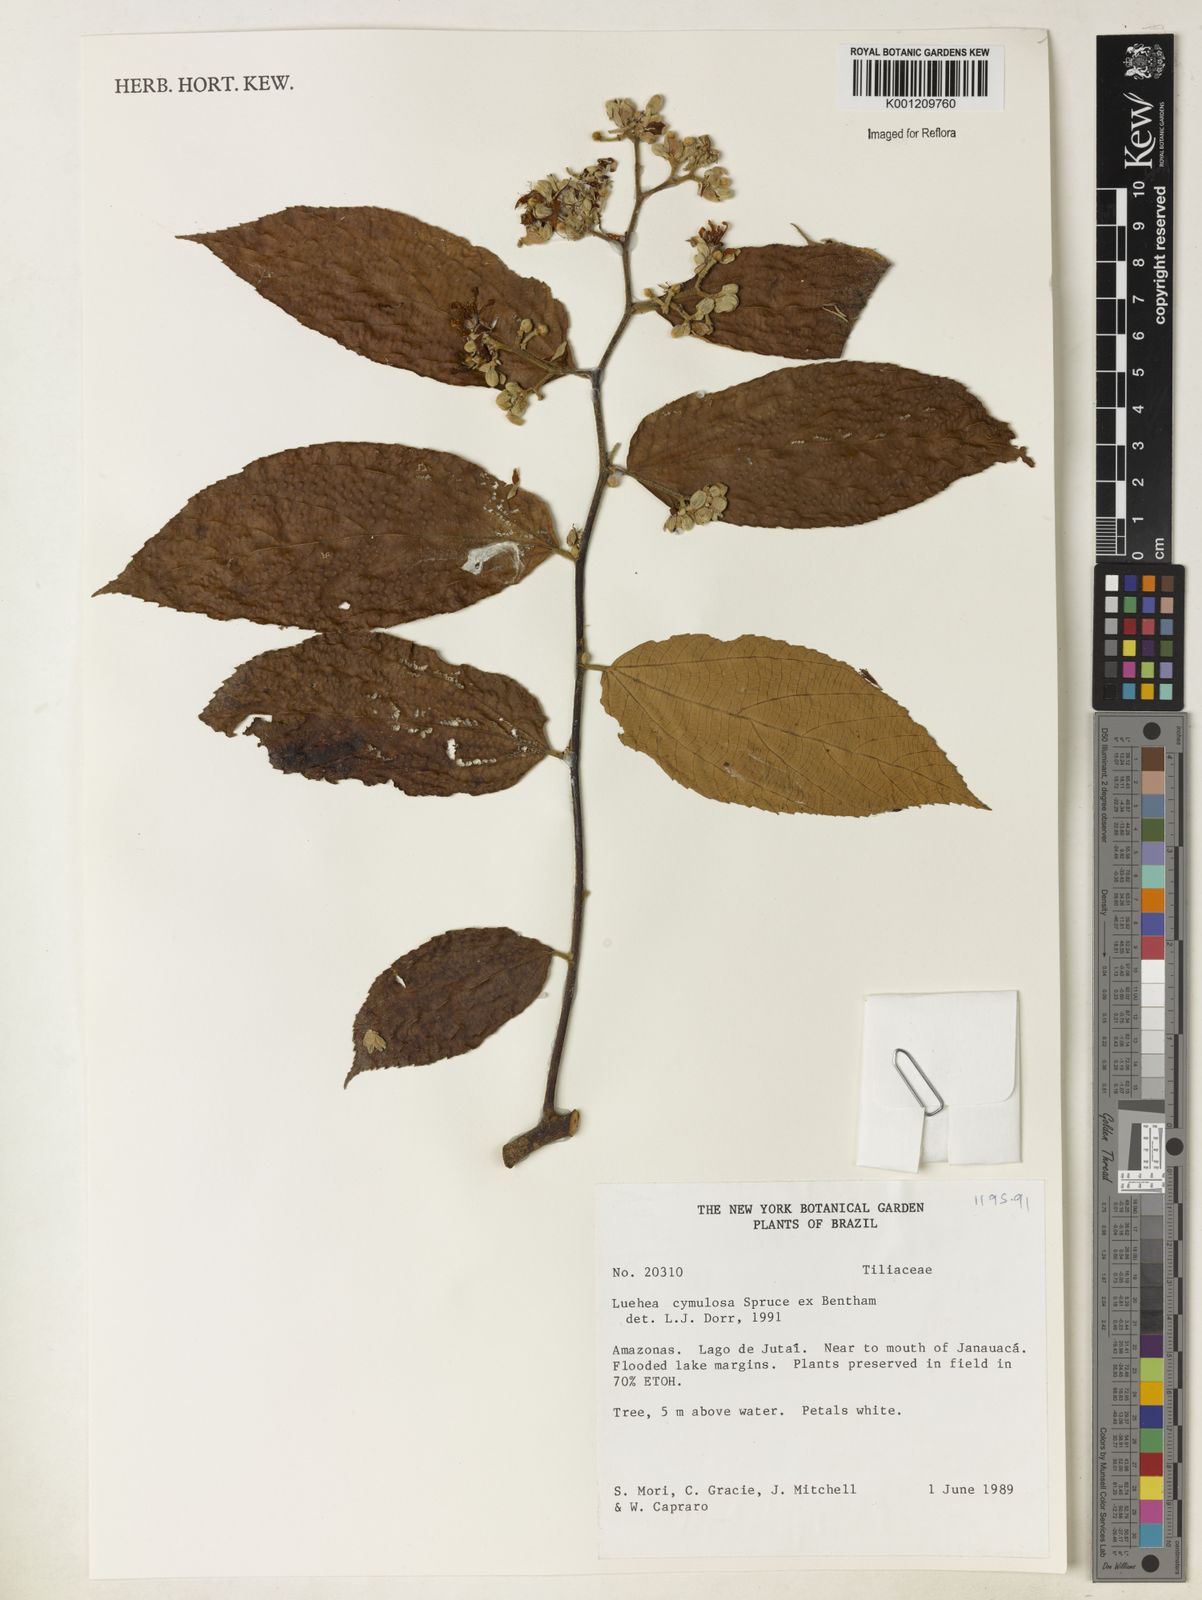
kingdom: Plantae
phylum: Tracheophyta
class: Magnoliopsida
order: Malvales
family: Malvaceae
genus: Luehea
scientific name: Luehea cymulosa
